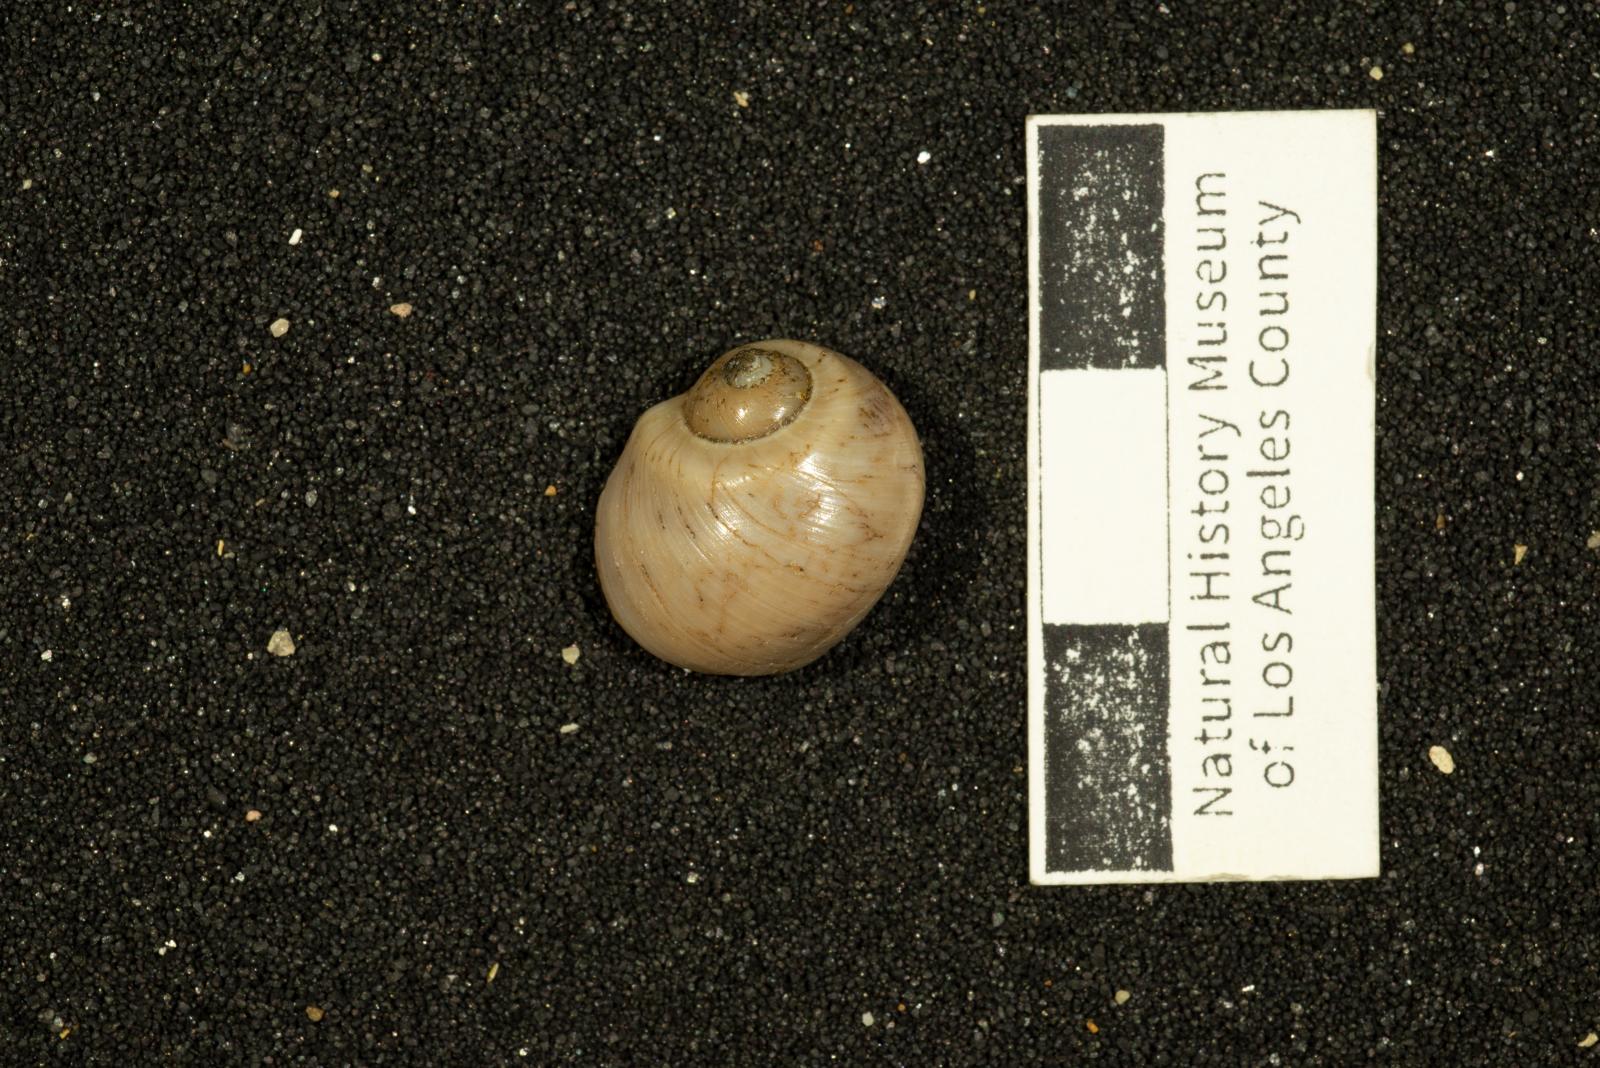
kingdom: Animalia
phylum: Mollusca
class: Gastropoda
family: Gyrodidae
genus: Gyrodes
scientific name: Gyrodes quercus
